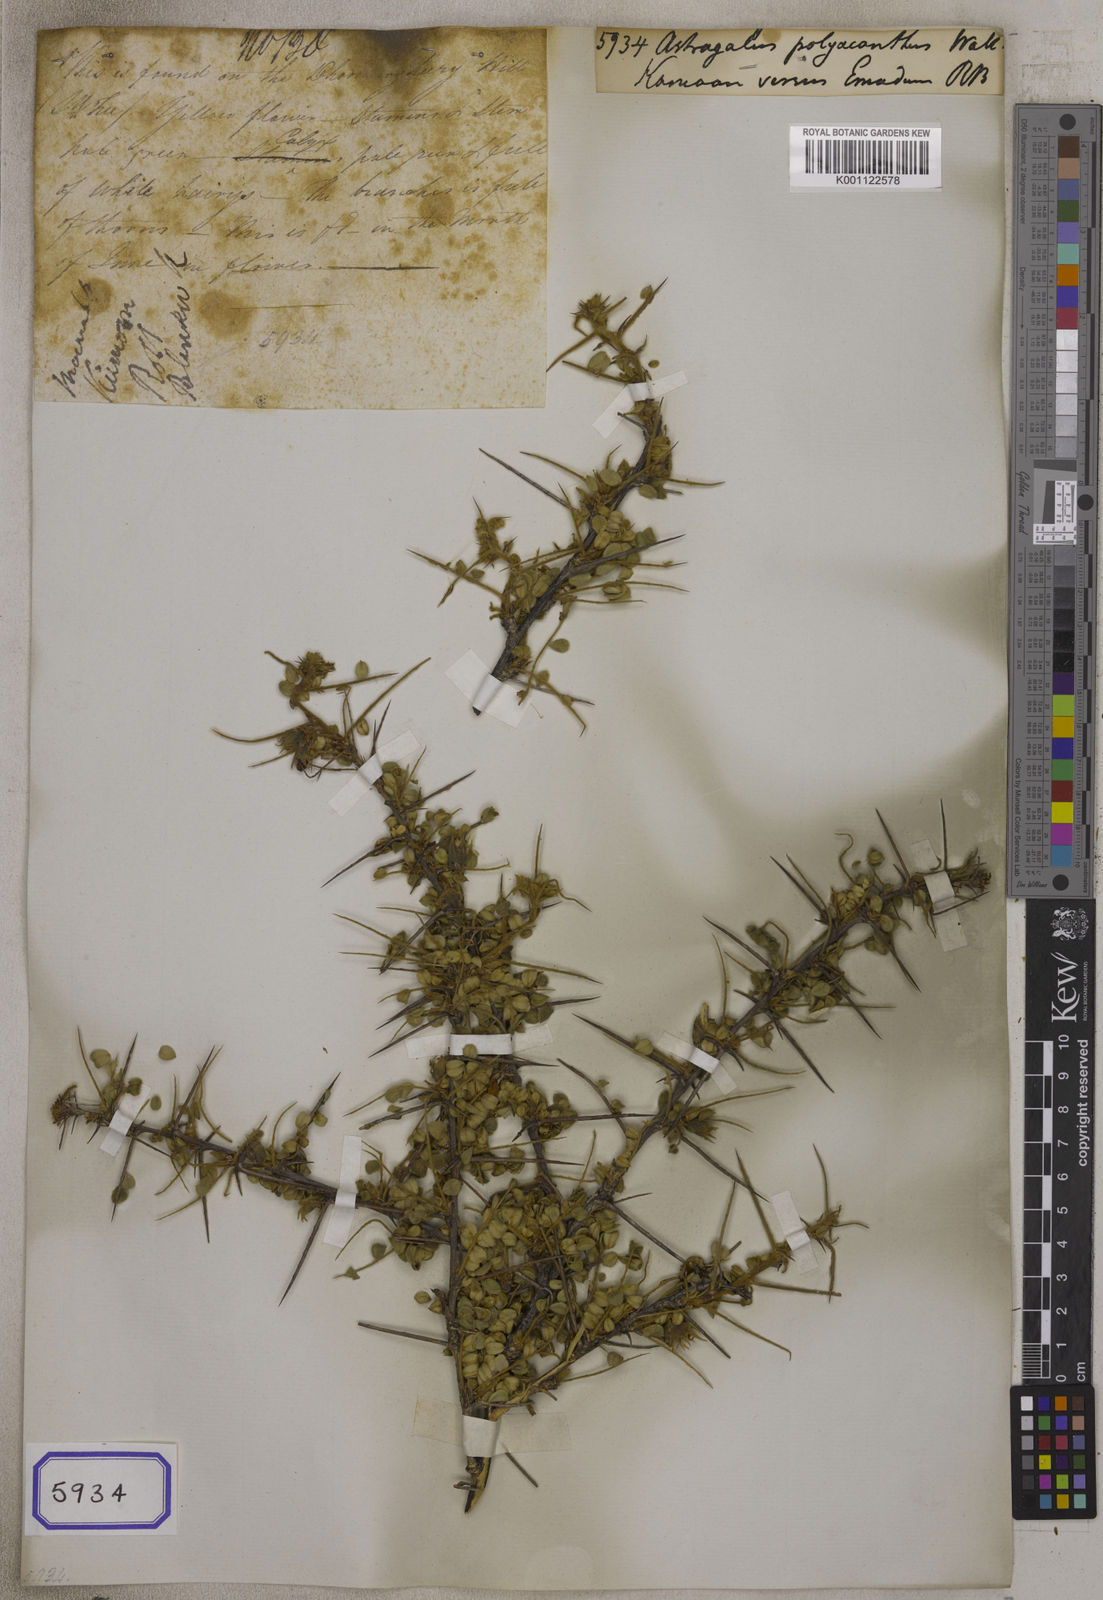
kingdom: Plantae
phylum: Tracheophyta
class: Magnoliopsida
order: Fabales
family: Fabaceae
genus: Astragalus
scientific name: Astragalus
